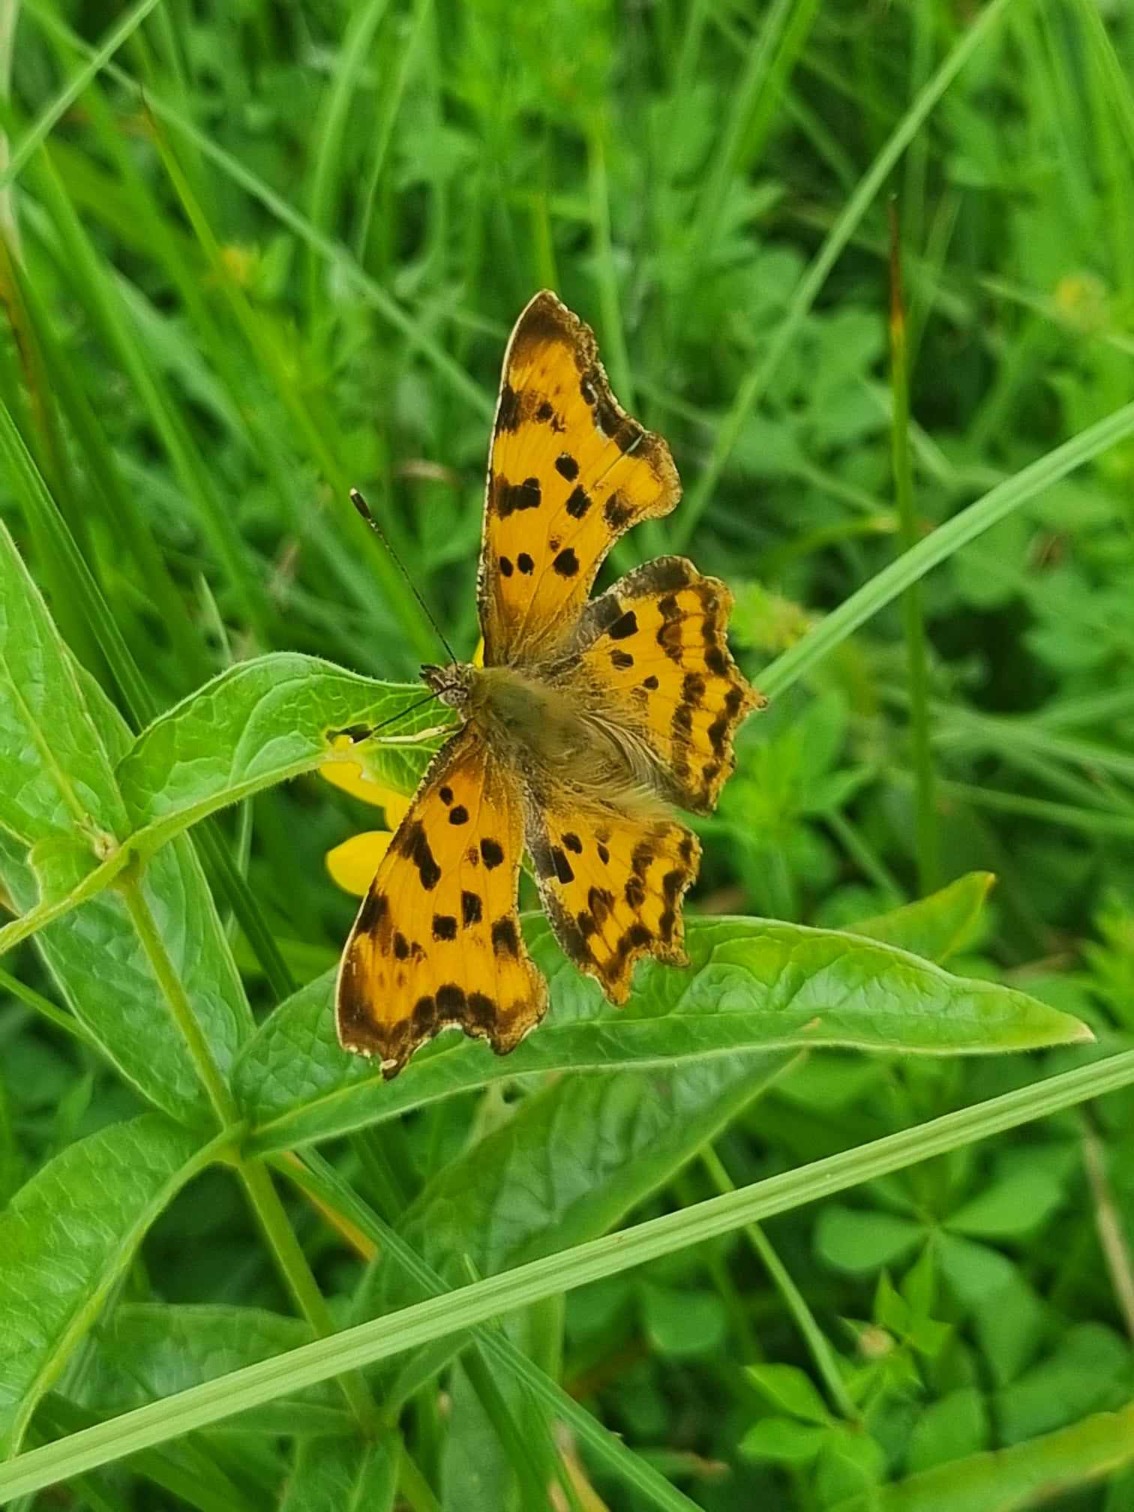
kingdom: Animalia
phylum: Arthropoda
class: Insecta
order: Lepidoptera
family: Nymphalidae
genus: Polygonia
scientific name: Polygonia c-album
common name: Det hvide C
